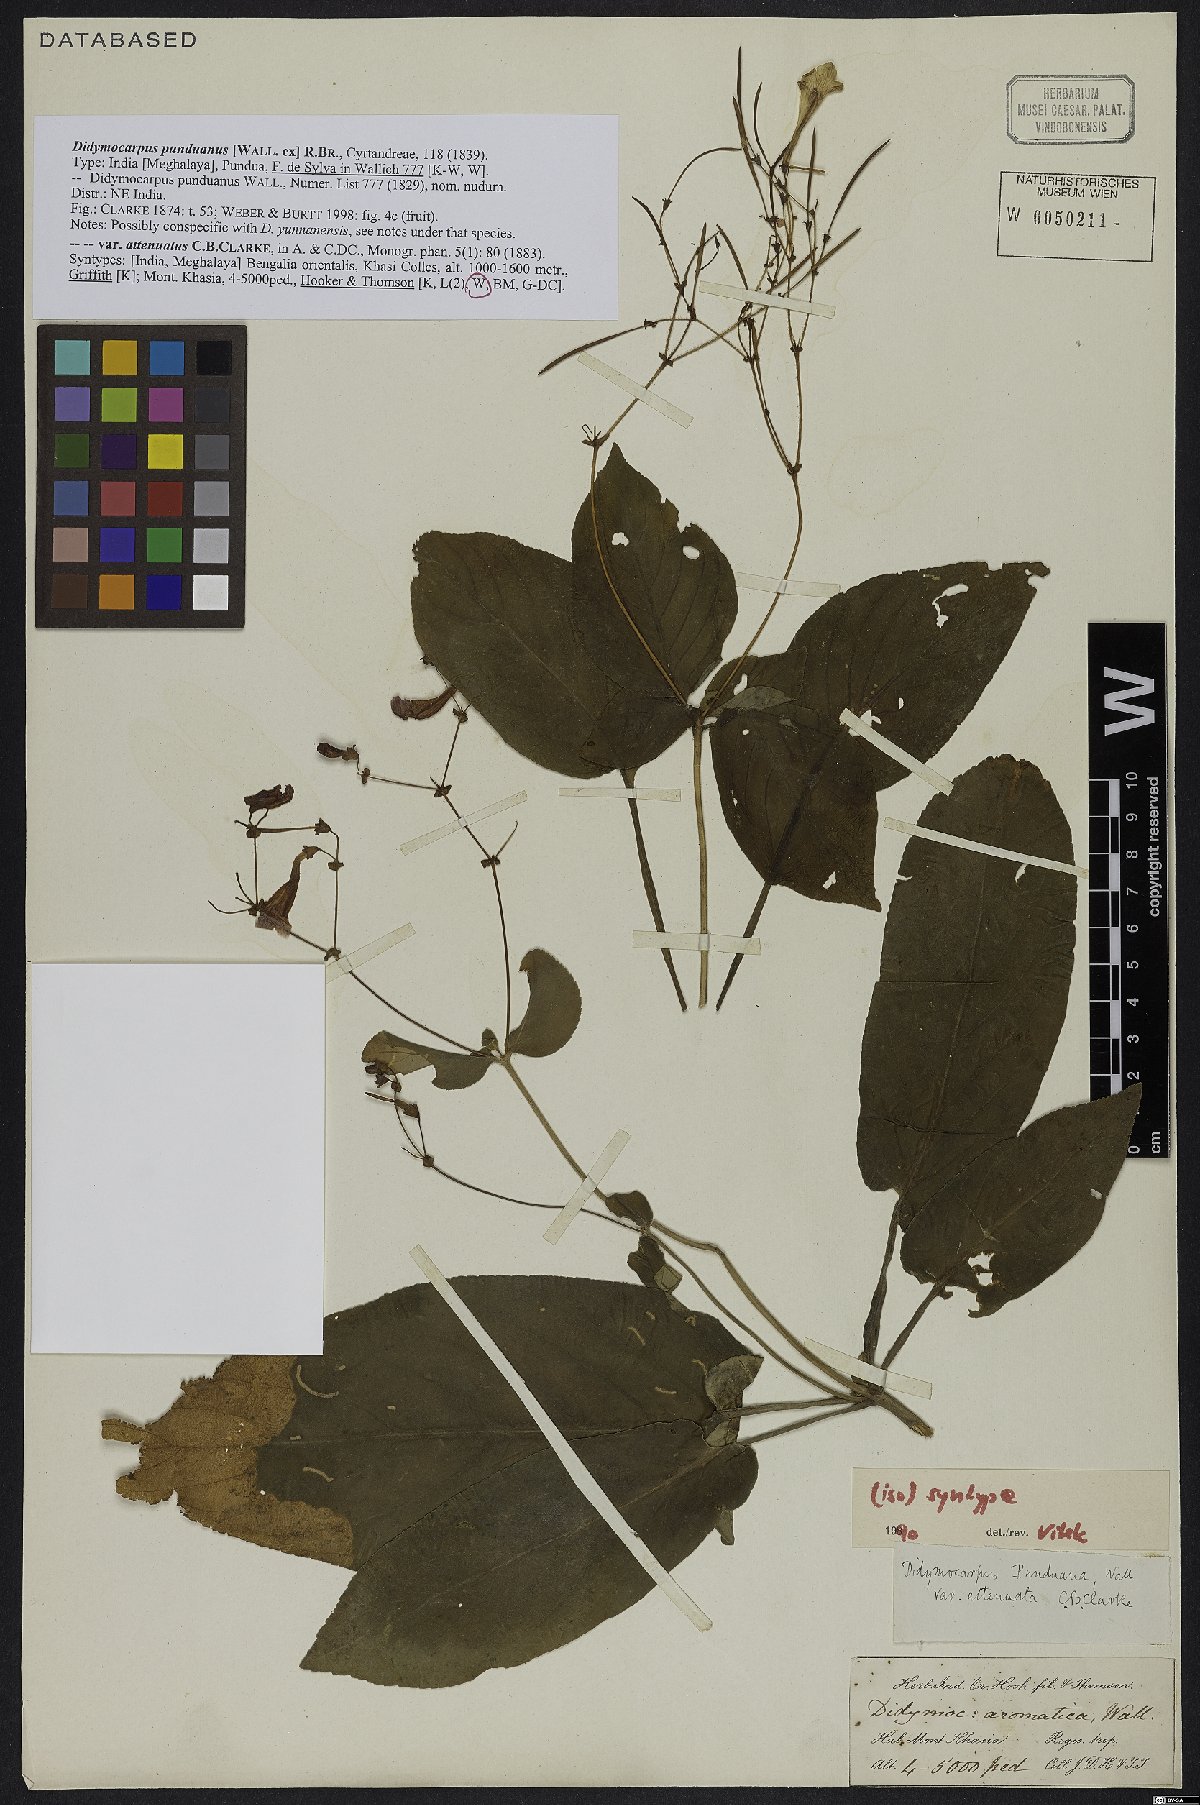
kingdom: Plantae
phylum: Tracheophyta
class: Magnoliopsida
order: Lamiales
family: Gesneriaceae
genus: Didymocarpus
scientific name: Didymocarpus punduanus
